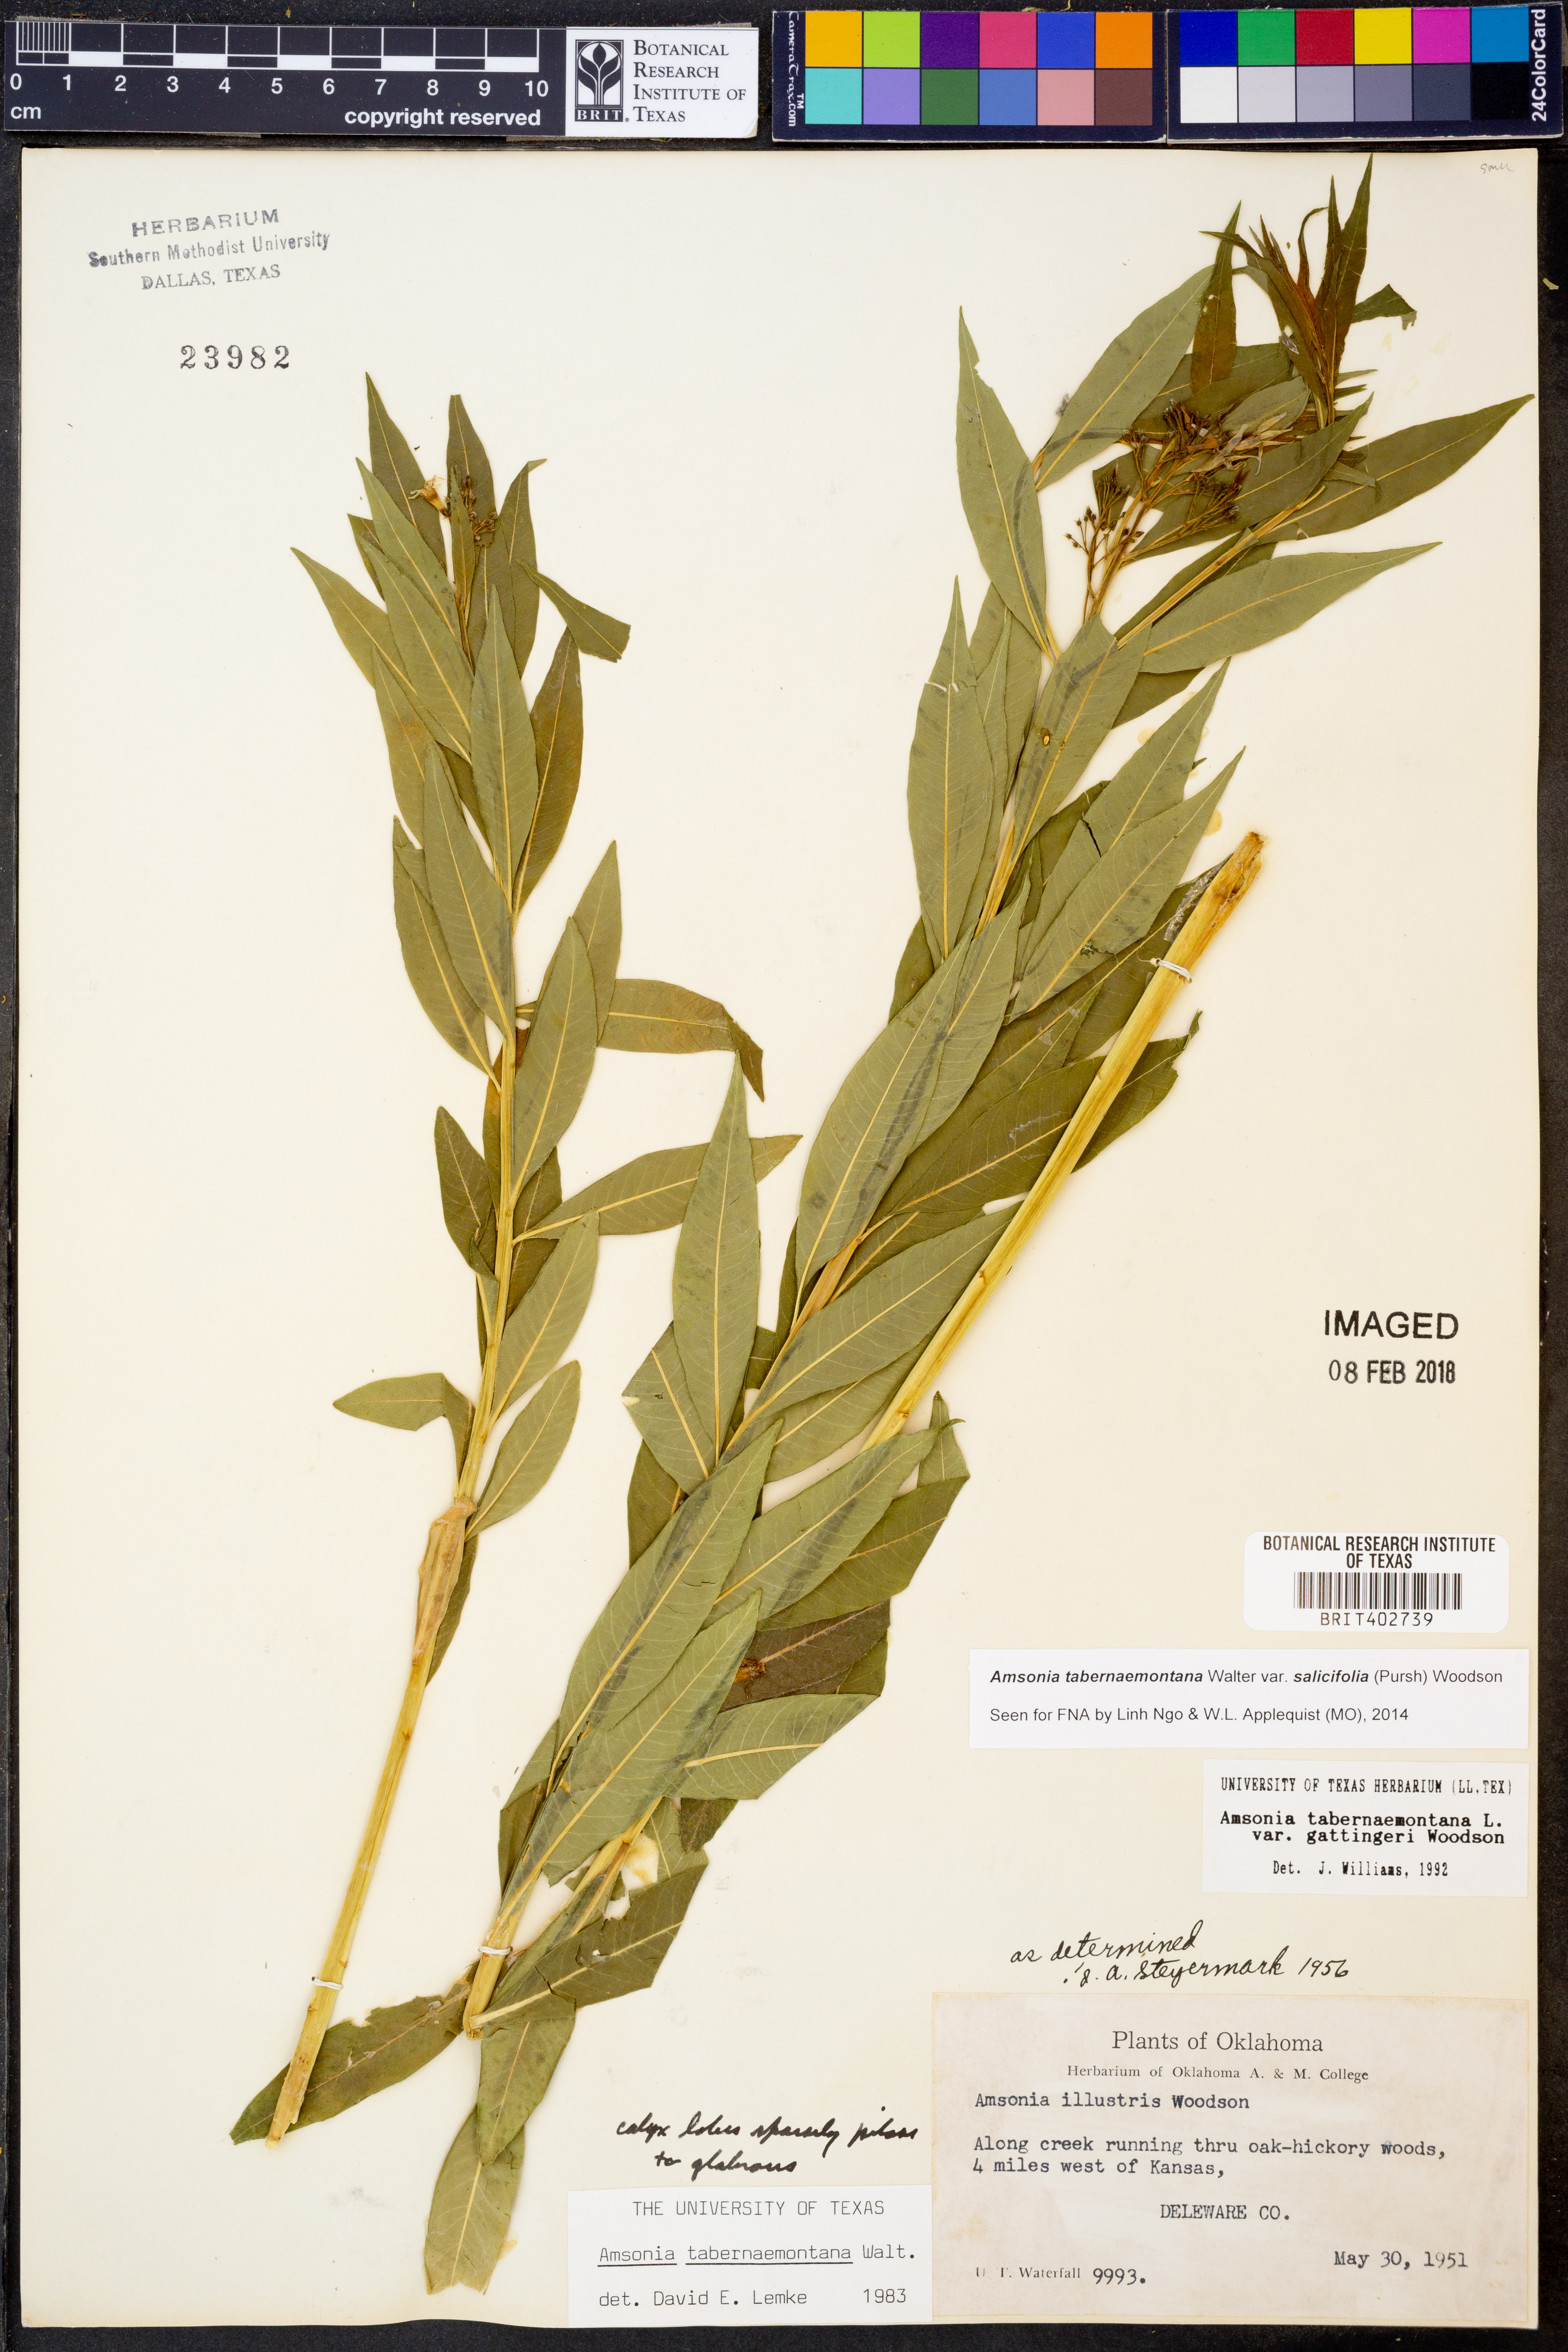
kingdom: Plantae
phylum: Tracheophyta
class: Magnoliopsida
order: Gentianales
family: Apocynaceae
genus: Amsonia
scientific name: Amsonia tabernaemontana
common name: Texas-star
